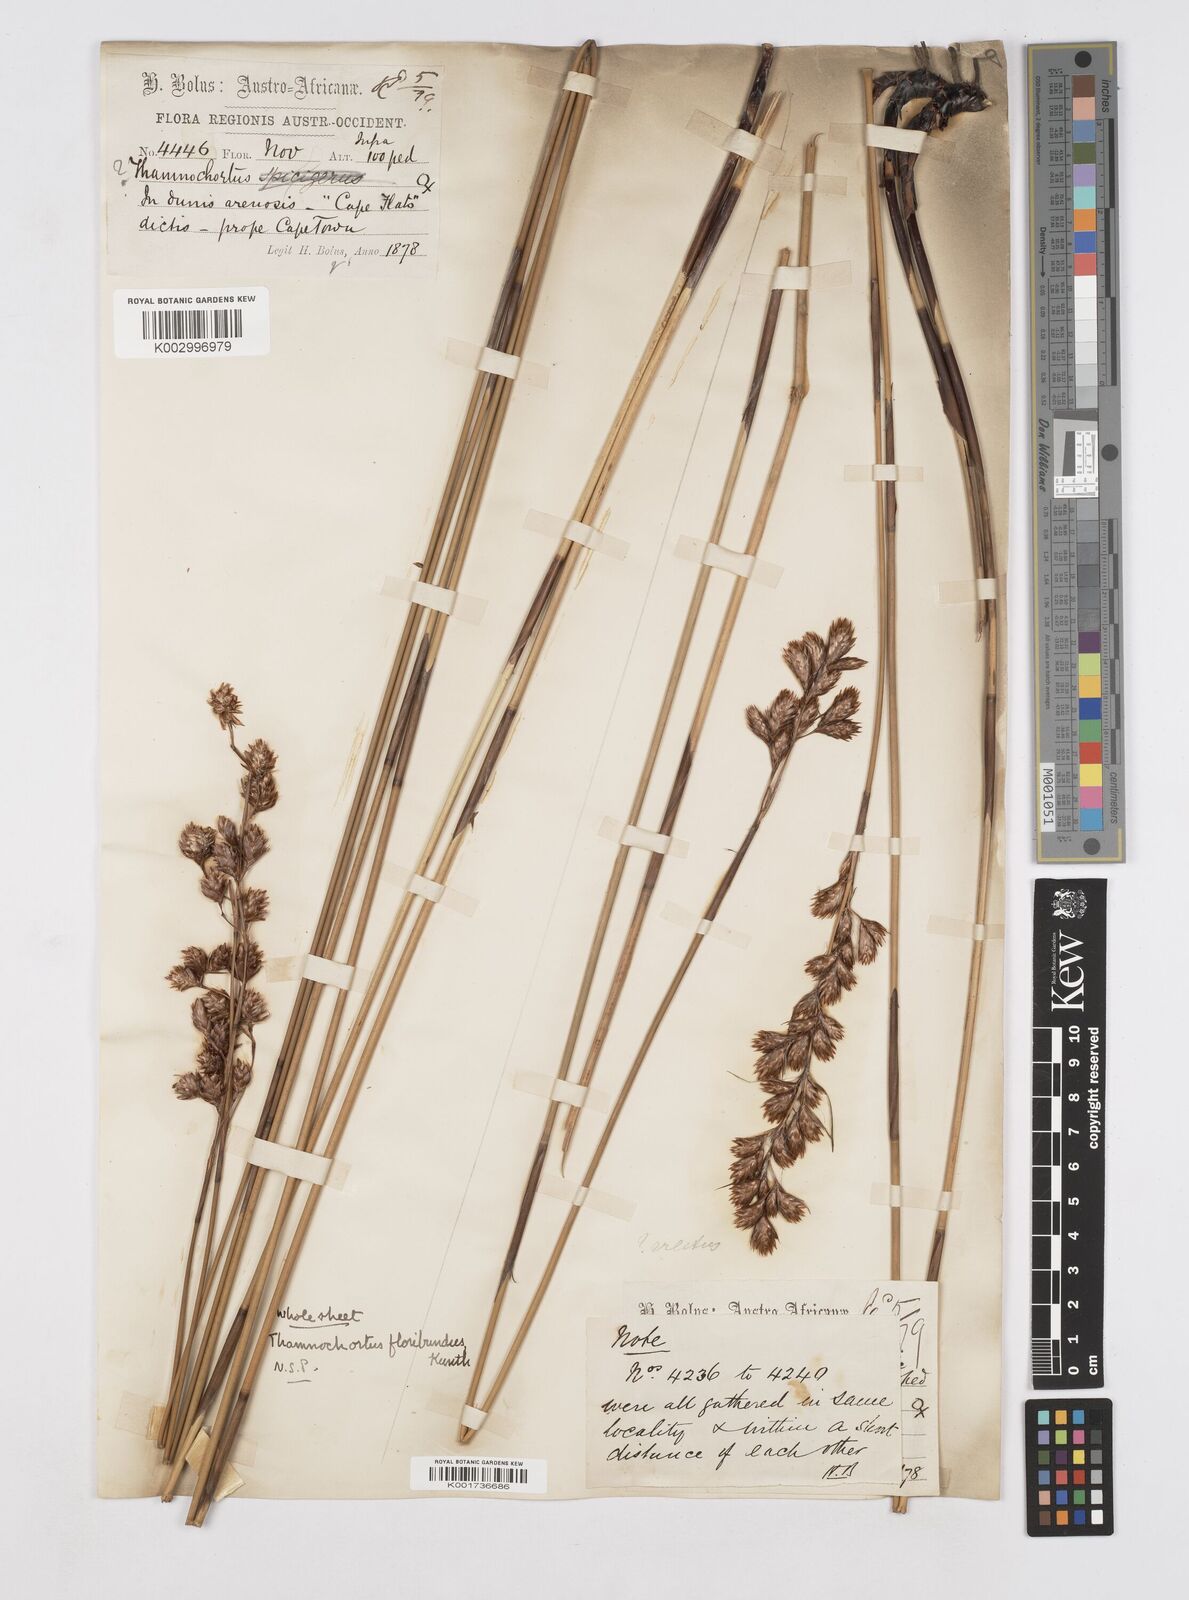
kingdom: Plantae
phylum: Tracheophyta
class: Liliopsida
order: Poales
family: Restionaceae
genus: Thamnochortus
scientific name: Thamnochortus erectus
